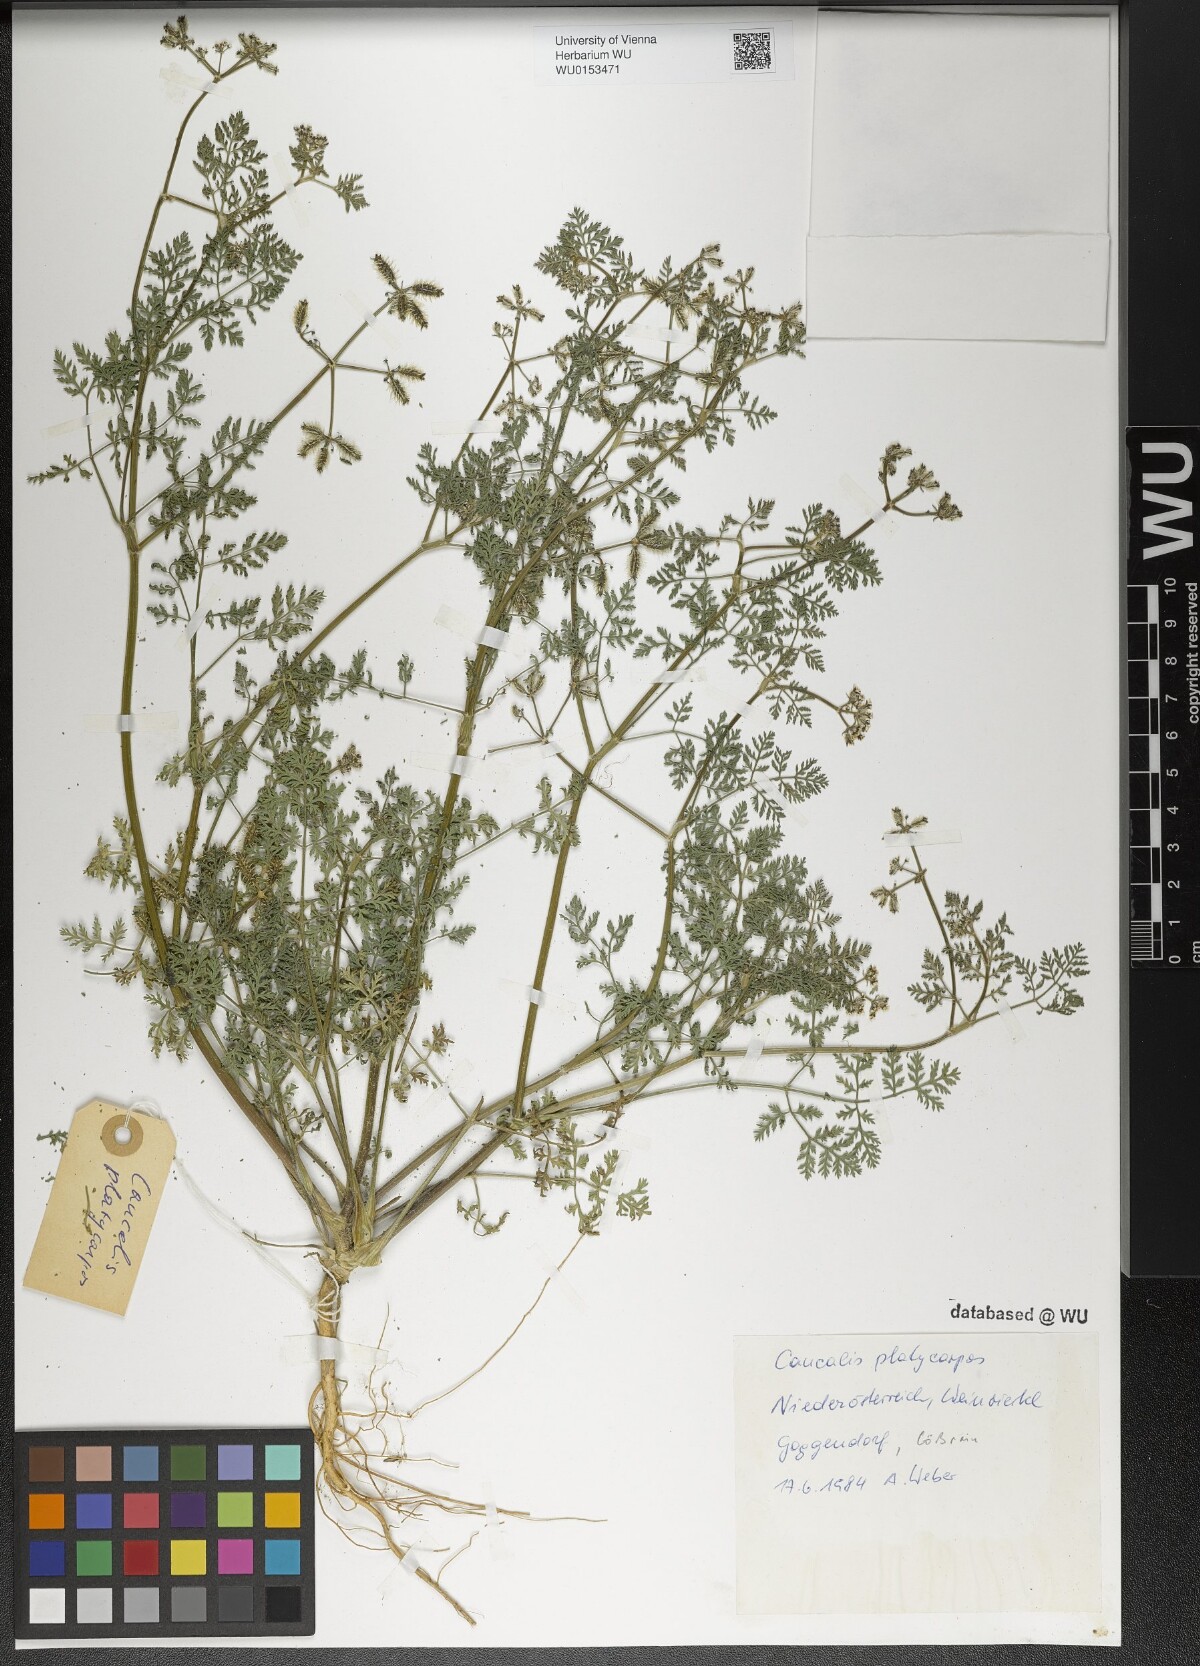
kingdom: Plantae
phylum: Tracheophyta
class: Magnoliopsida
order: Apiales
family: Apiaceae
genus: Caucalis
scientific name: Caucalis platycarpos
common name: Small bur-parsley
